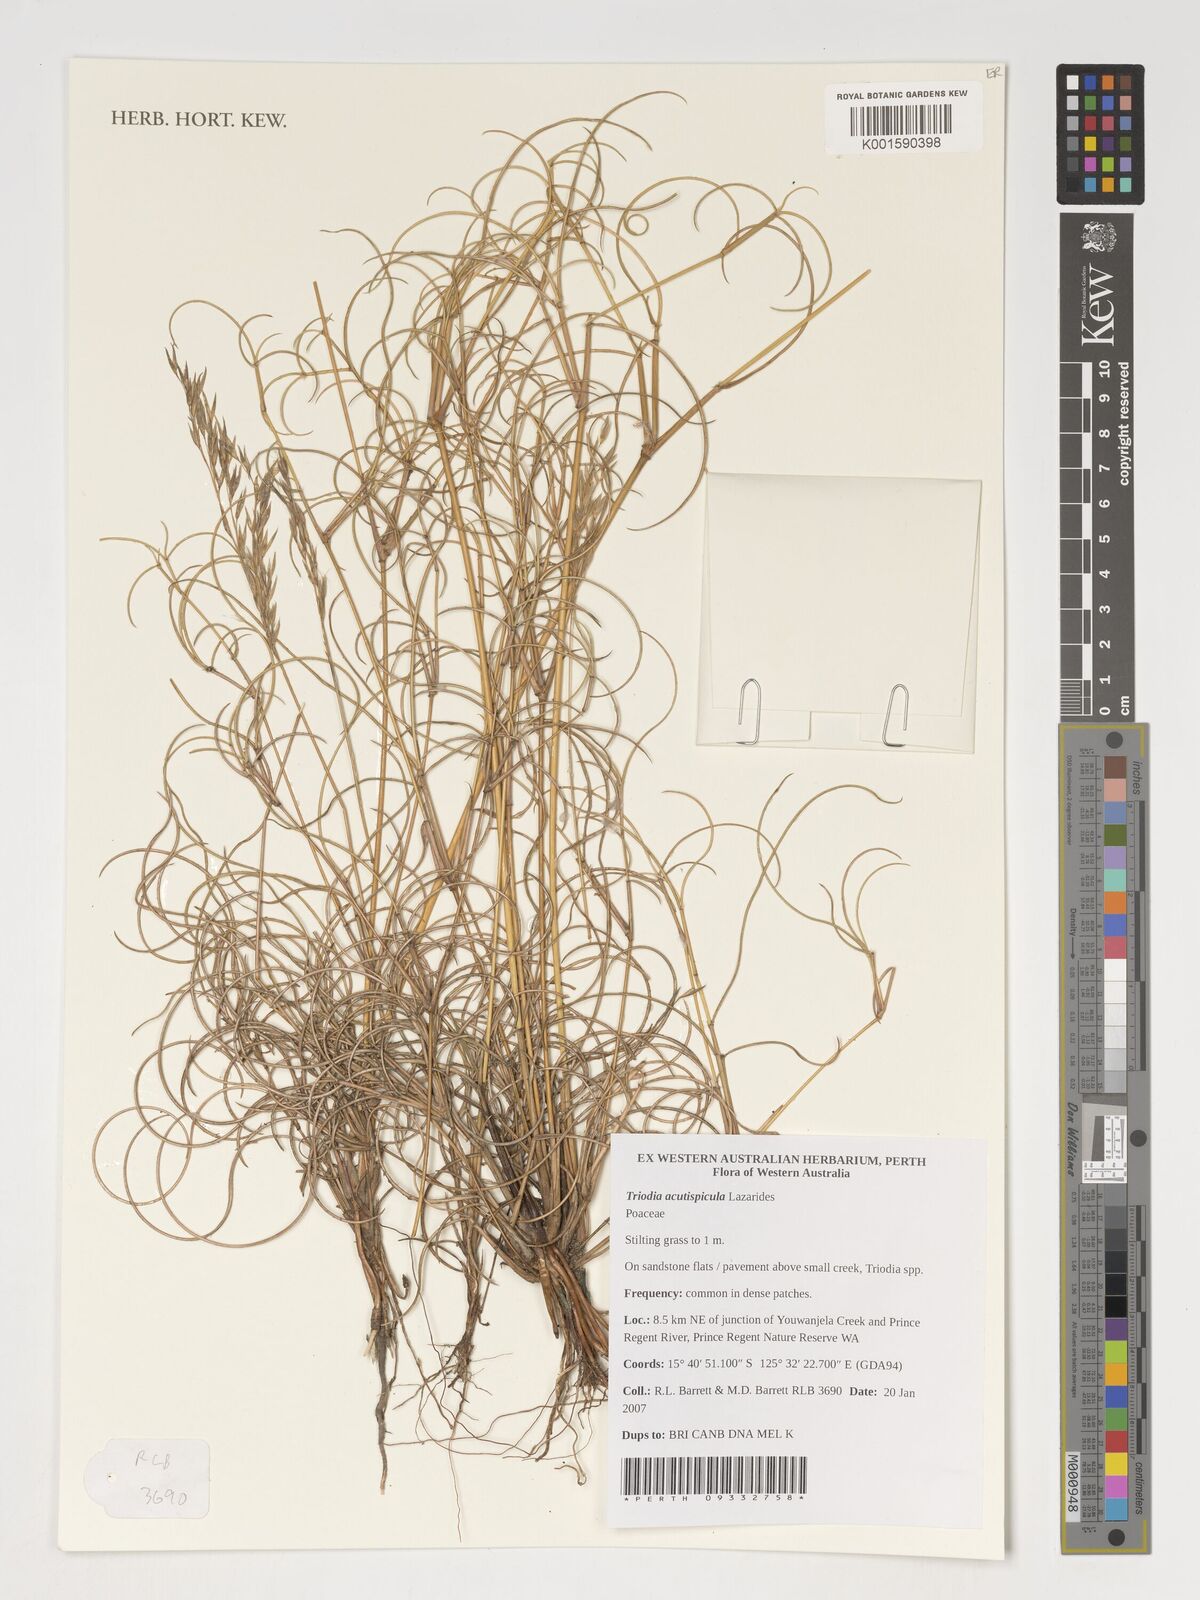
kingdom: Plantae
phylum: Tracheophyta
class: Liliopsida
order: Poales
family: Poaceae
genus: Triodia
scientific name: Triodia acutispicula
